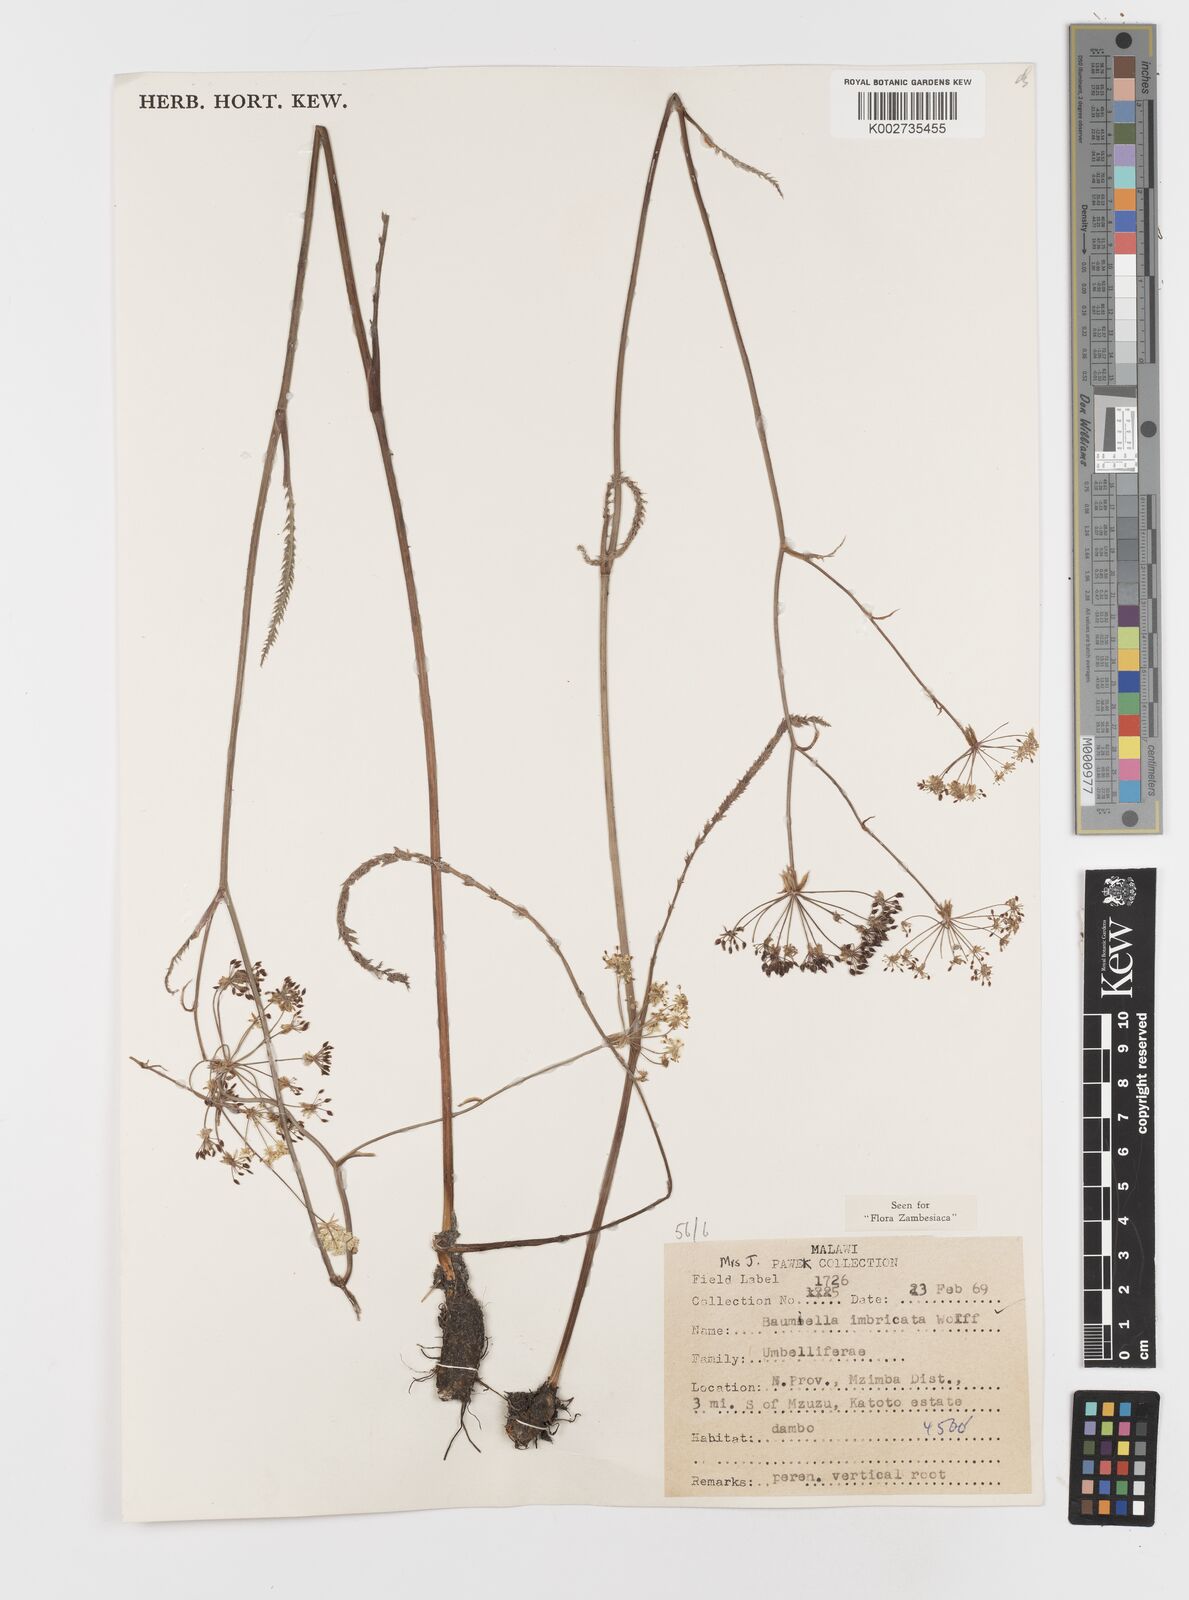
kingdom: Plantae
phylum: Tracheophyta
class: Magnoliopsida
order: Apiales
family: Apiaceae
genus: Berula
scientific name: Berula imbricata
